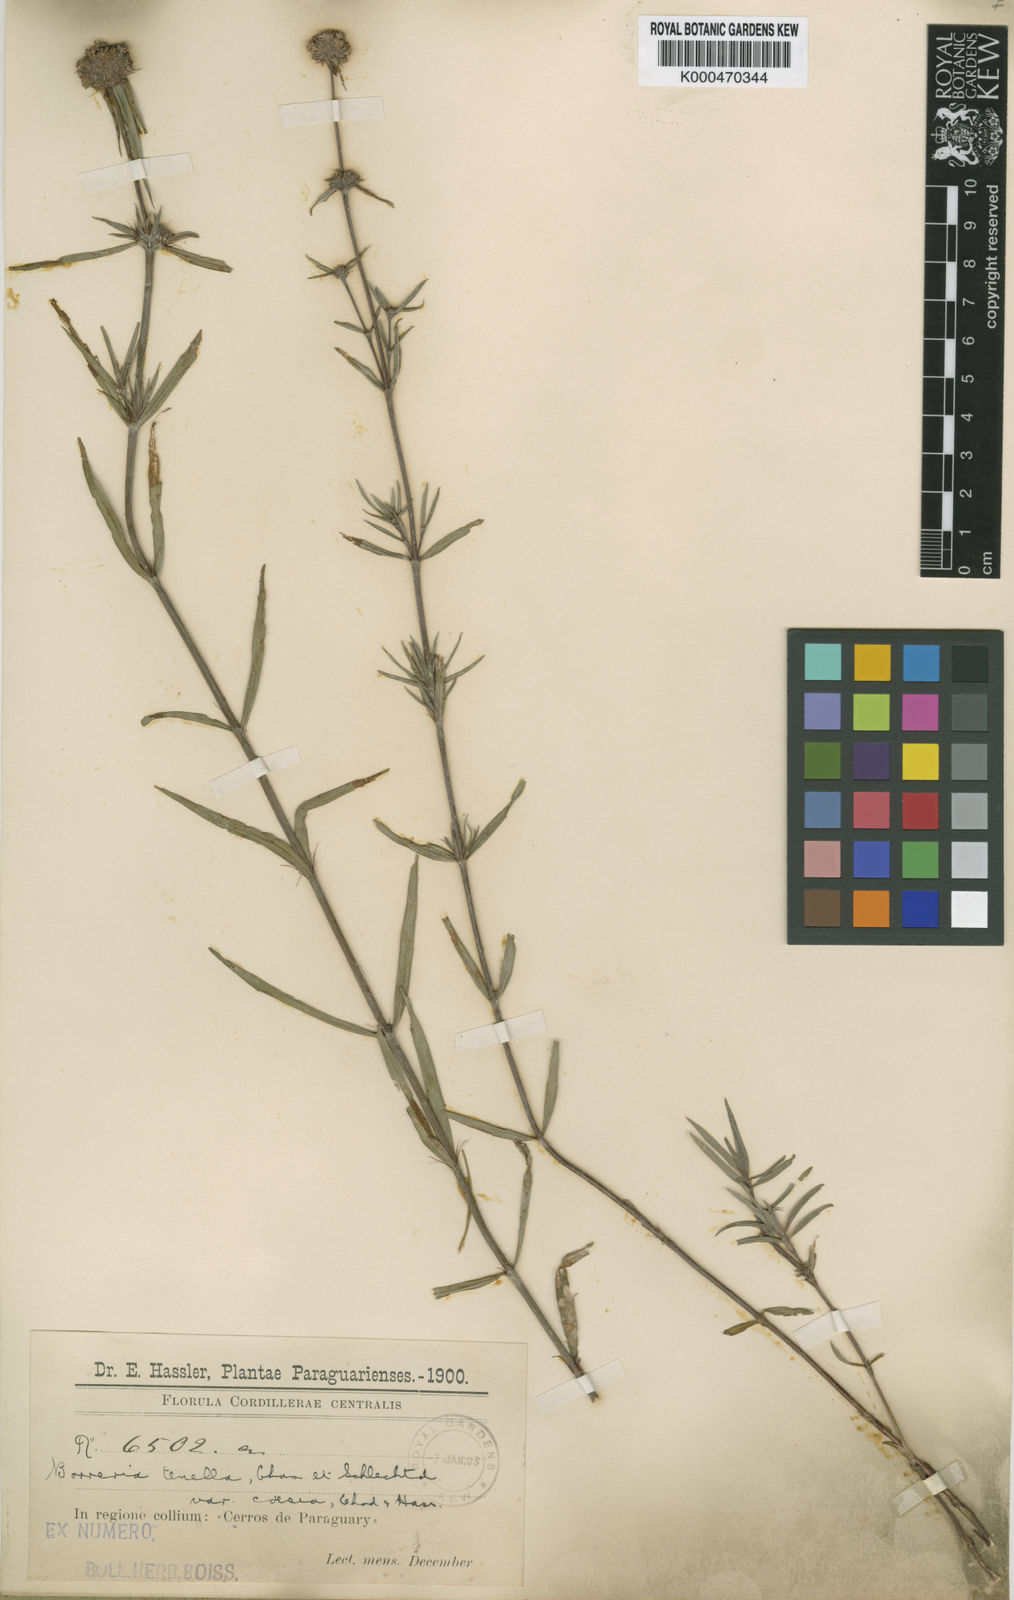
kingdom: Plantae
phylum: Tracheophyta
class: Magnoliopsida
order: Gentianales
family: Rubiaceae
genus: Spermacoce
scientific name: Spermacoce orinocensis
